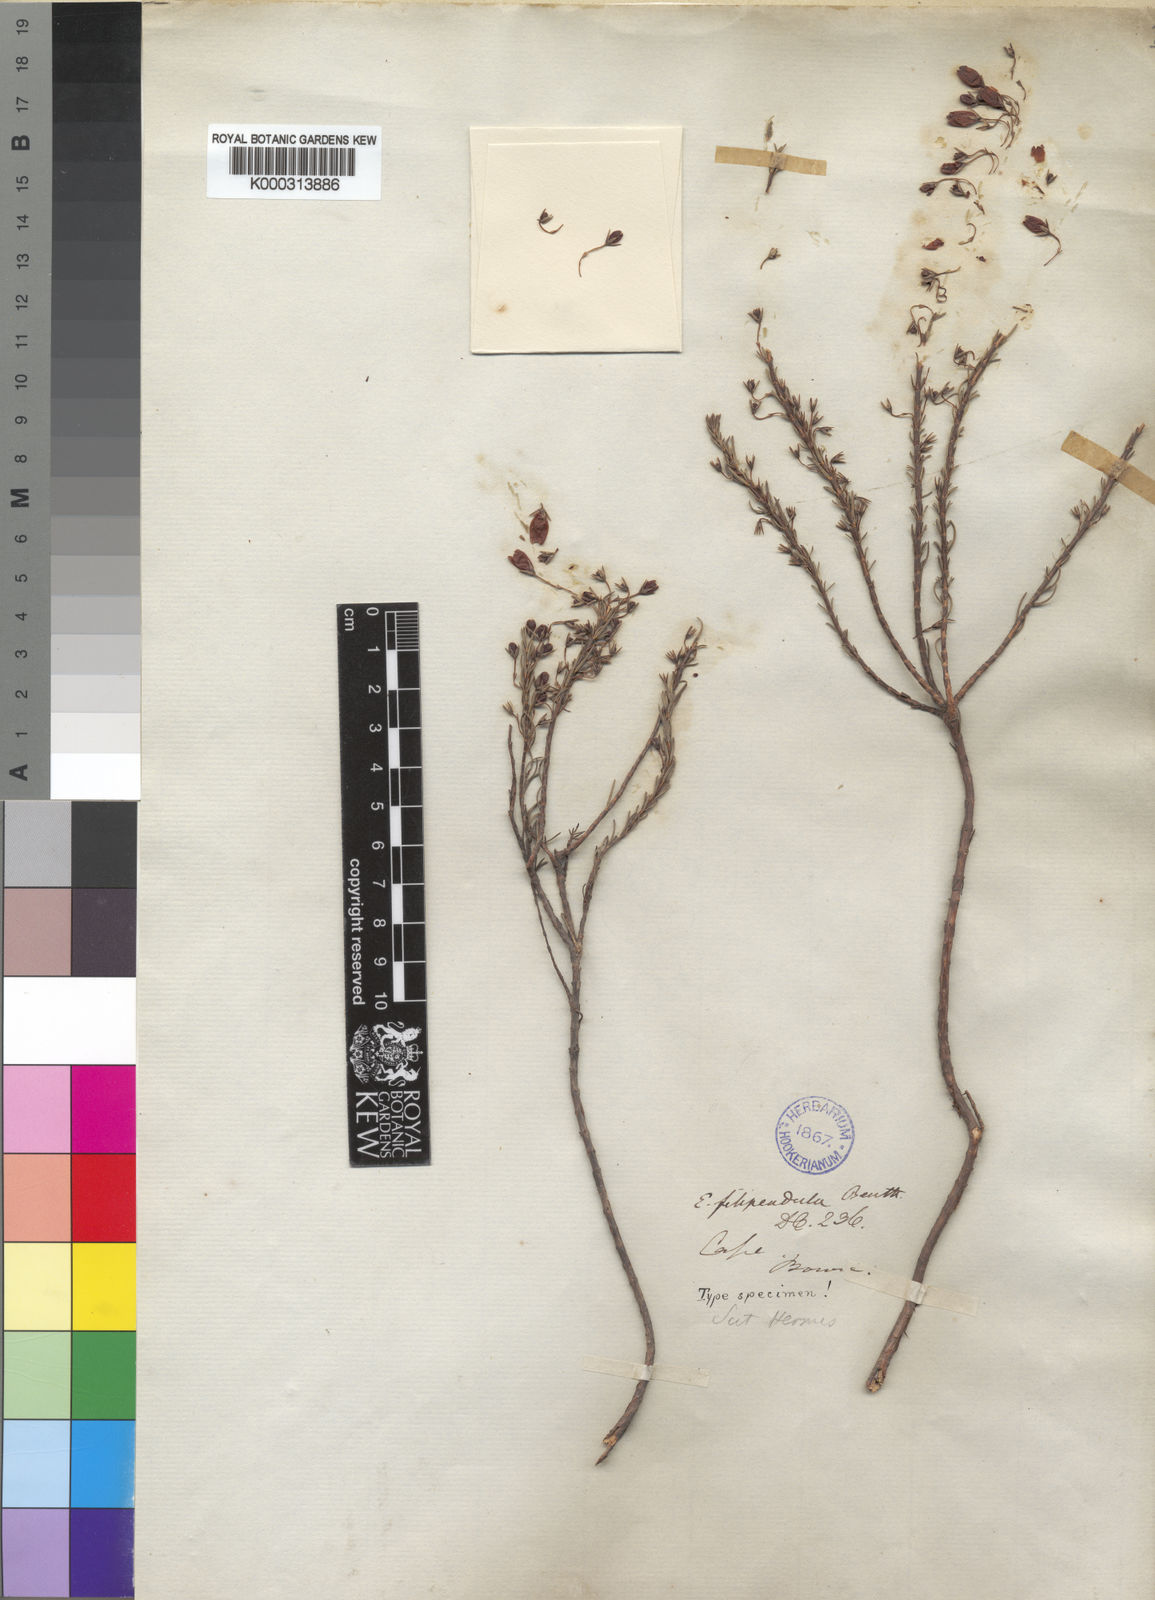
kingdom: Plantae
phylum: Tracheophyta
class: Magnoliopsida
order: Ericales
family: Ericaceae
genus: Erica
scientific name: Erica filipendula
